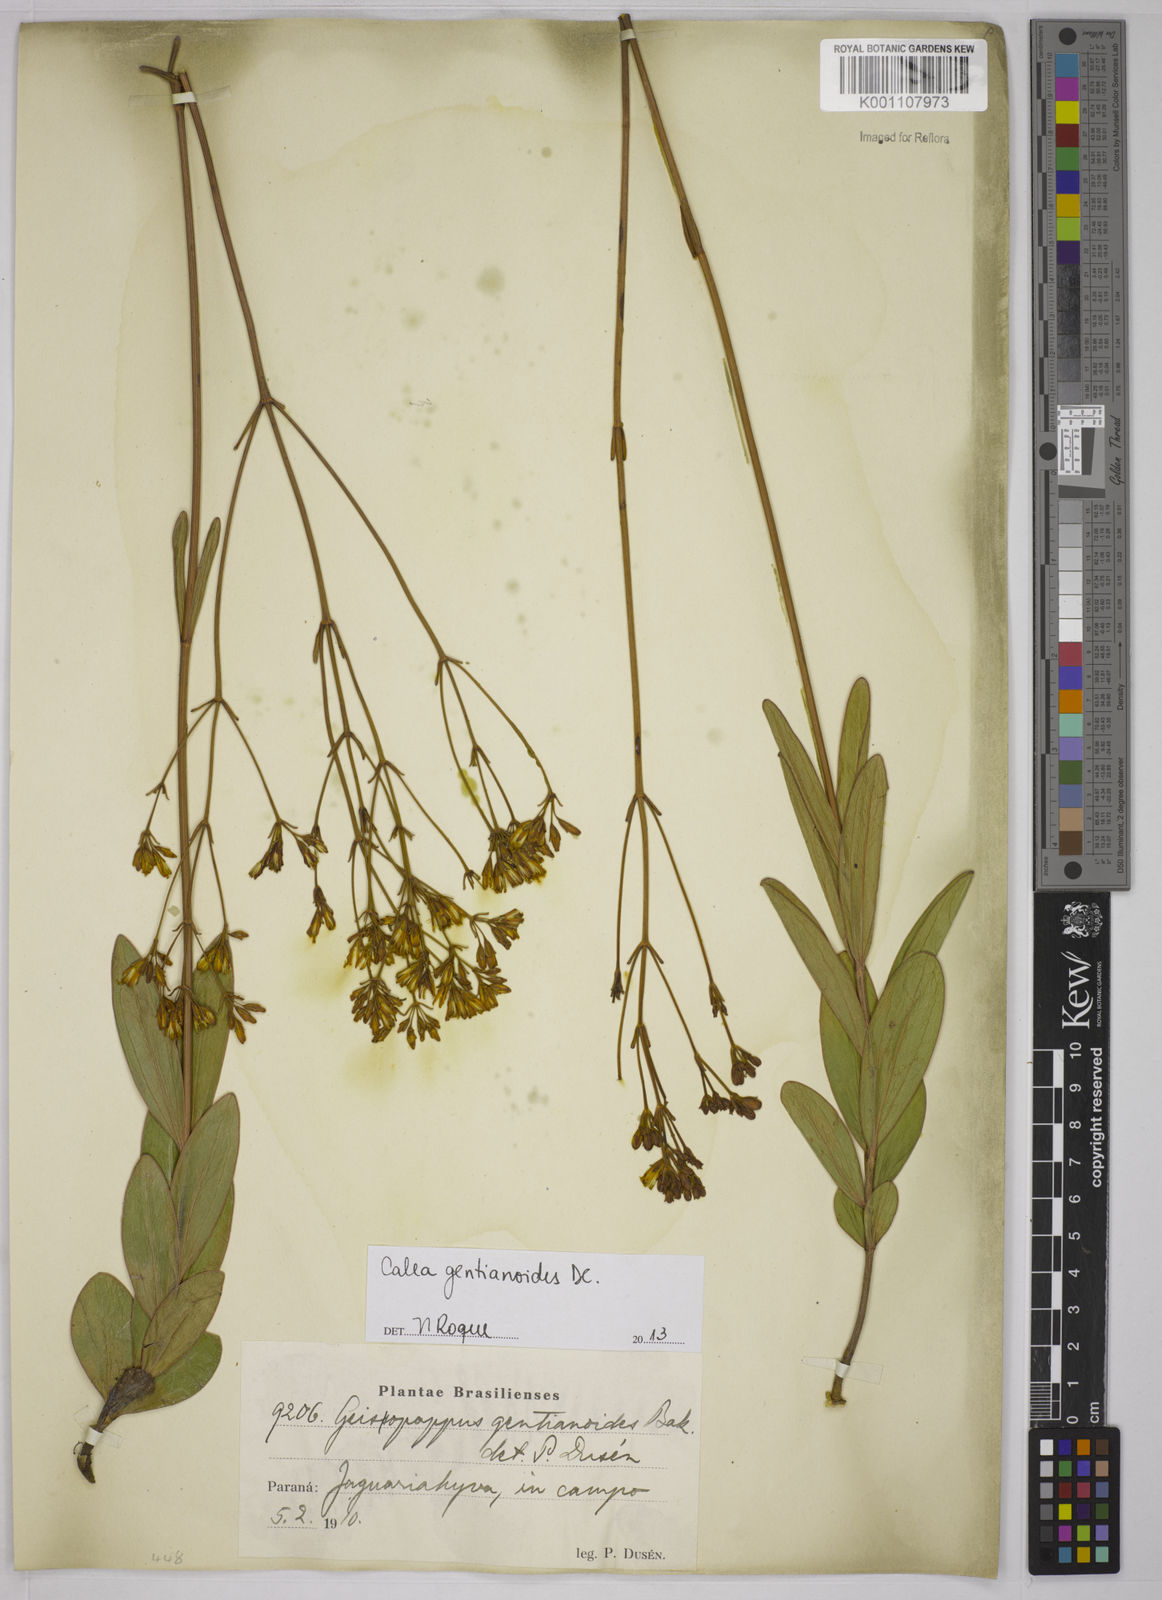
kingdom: Plantae
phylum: Tracheophyta
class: Magnoliopsida
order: Asterales
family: Asteraceae
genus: Calea
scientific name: Calea gentianoides
